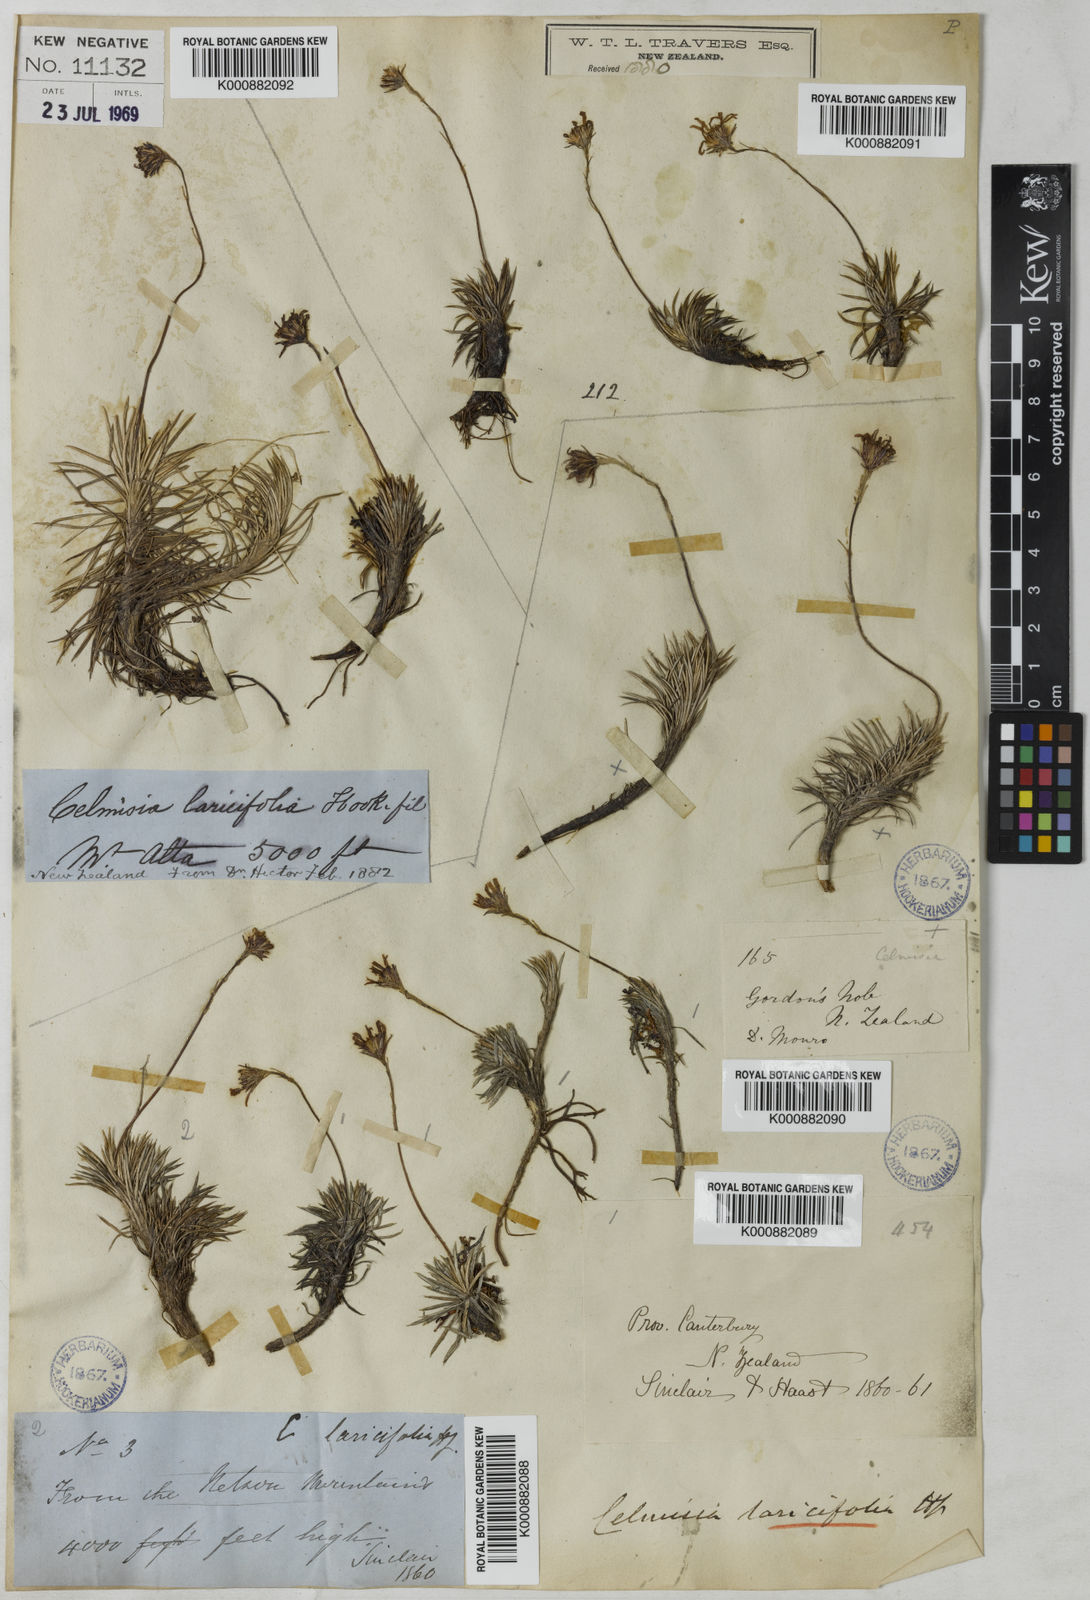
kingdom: Plantae
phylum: Tracheophyta
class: Magnoliopsida
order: Asterales
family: Asteraceae
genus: Celmisia
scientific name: Celmisia laricifolia
